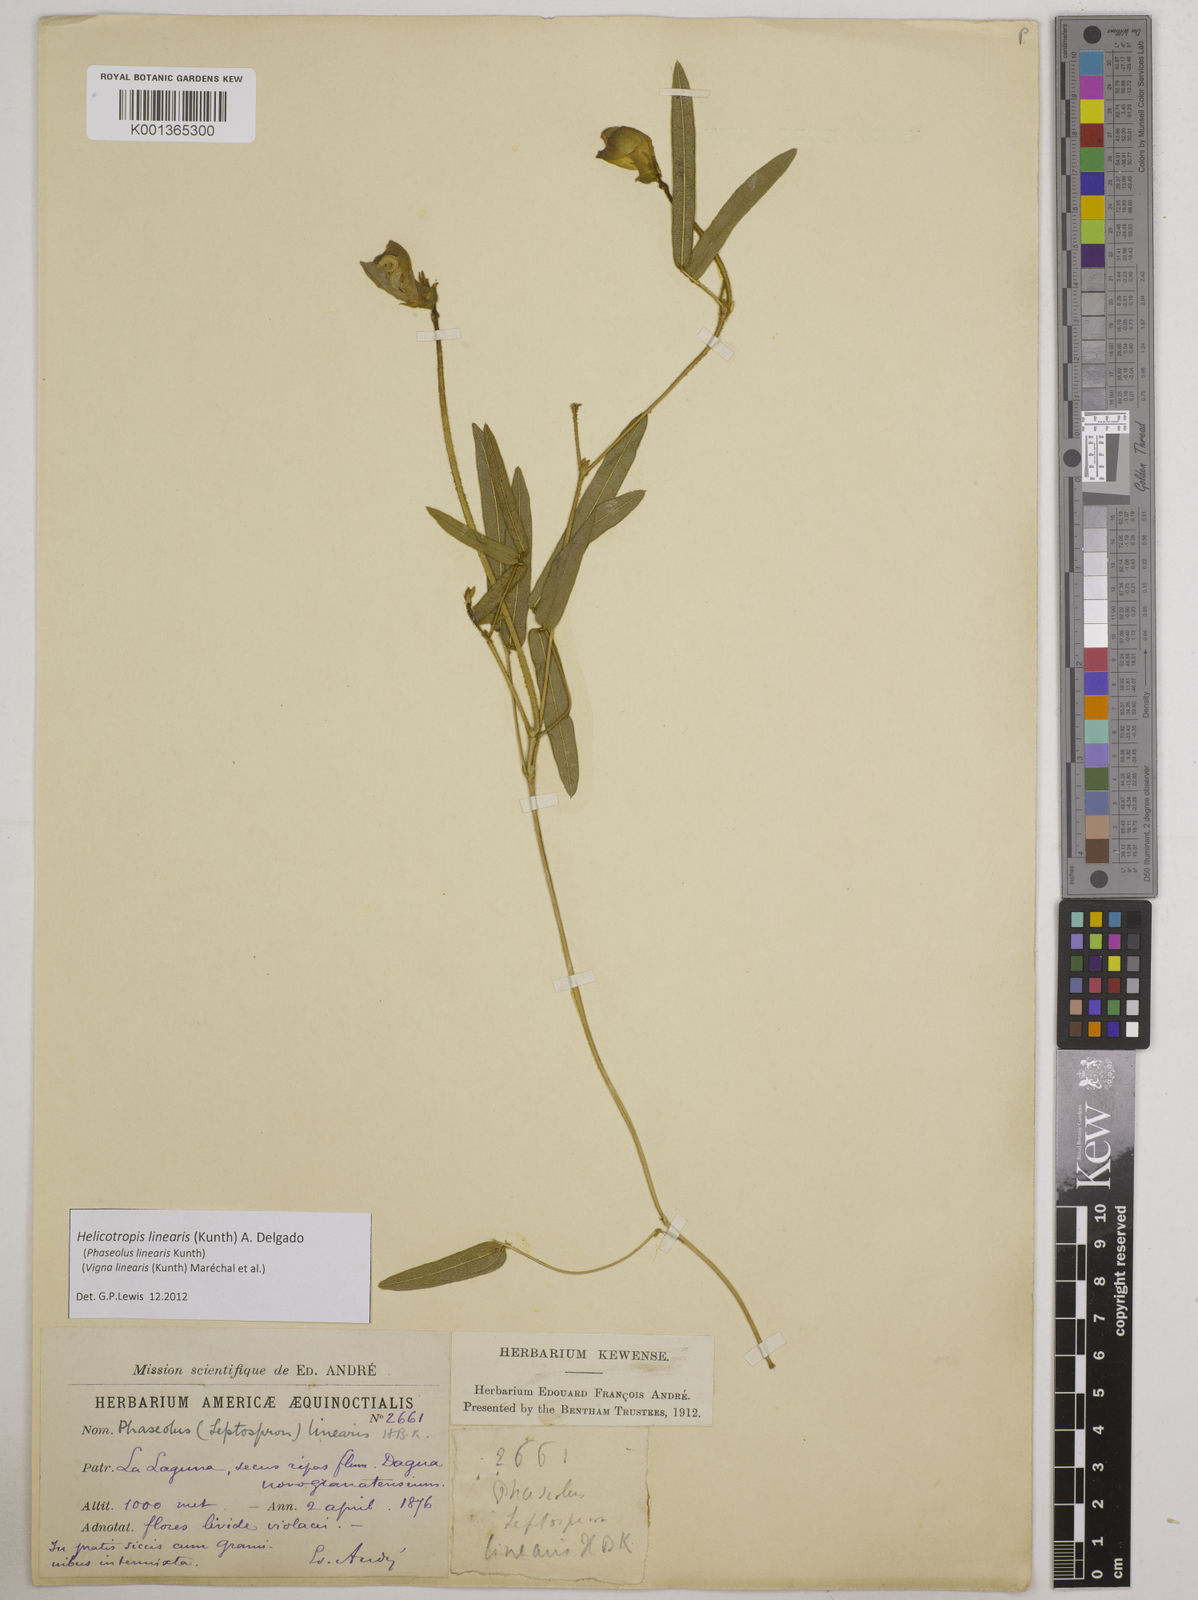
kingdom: Plantae
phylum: Tracheophyta
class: Magnoliopsida
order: Fabales
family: Fabaceae
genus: Helicotropis
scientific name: Helicotropis linearis
